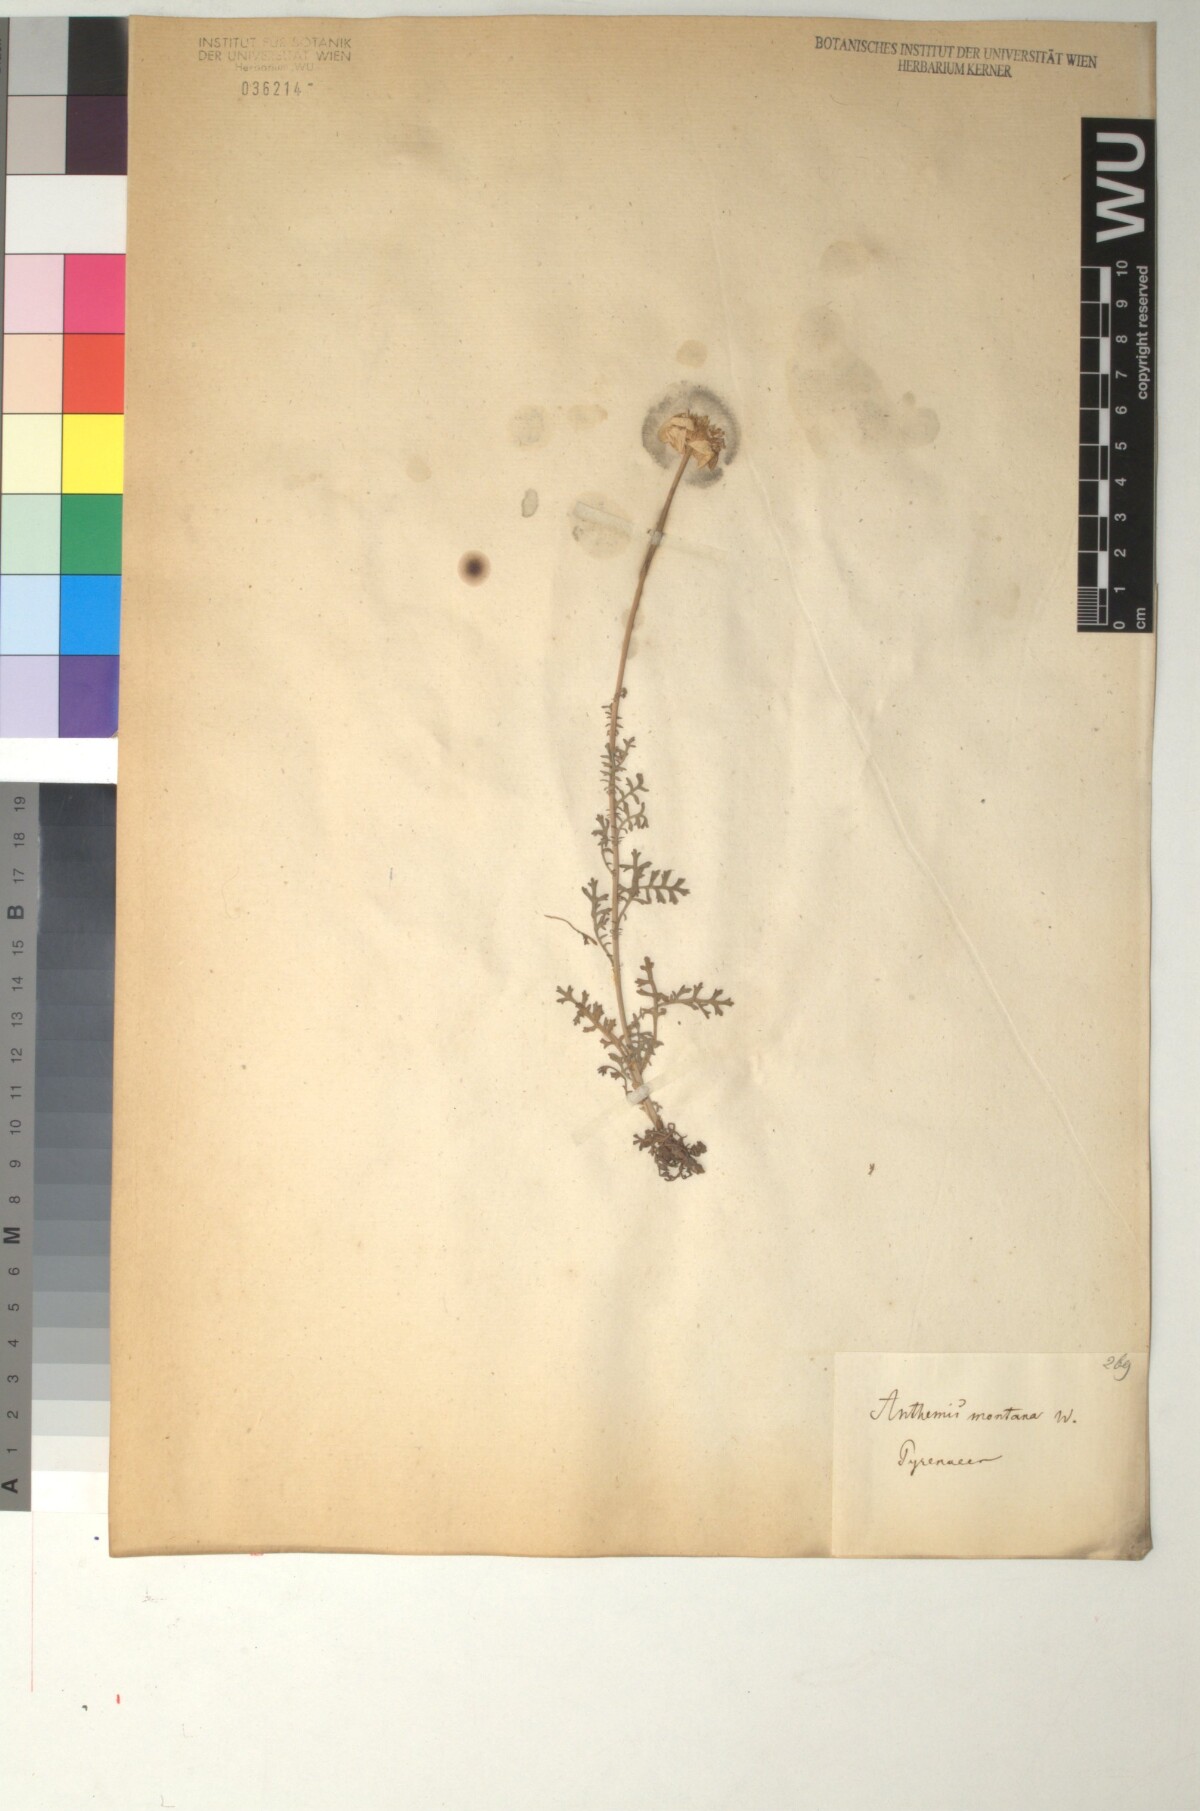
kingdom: Plantae
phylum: Tracheophyta
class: Magnoliopsida
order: Asterales
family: Asteraceae
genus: Anthemis
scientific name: Anthemis cretica
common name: Mountain dog-daisy
